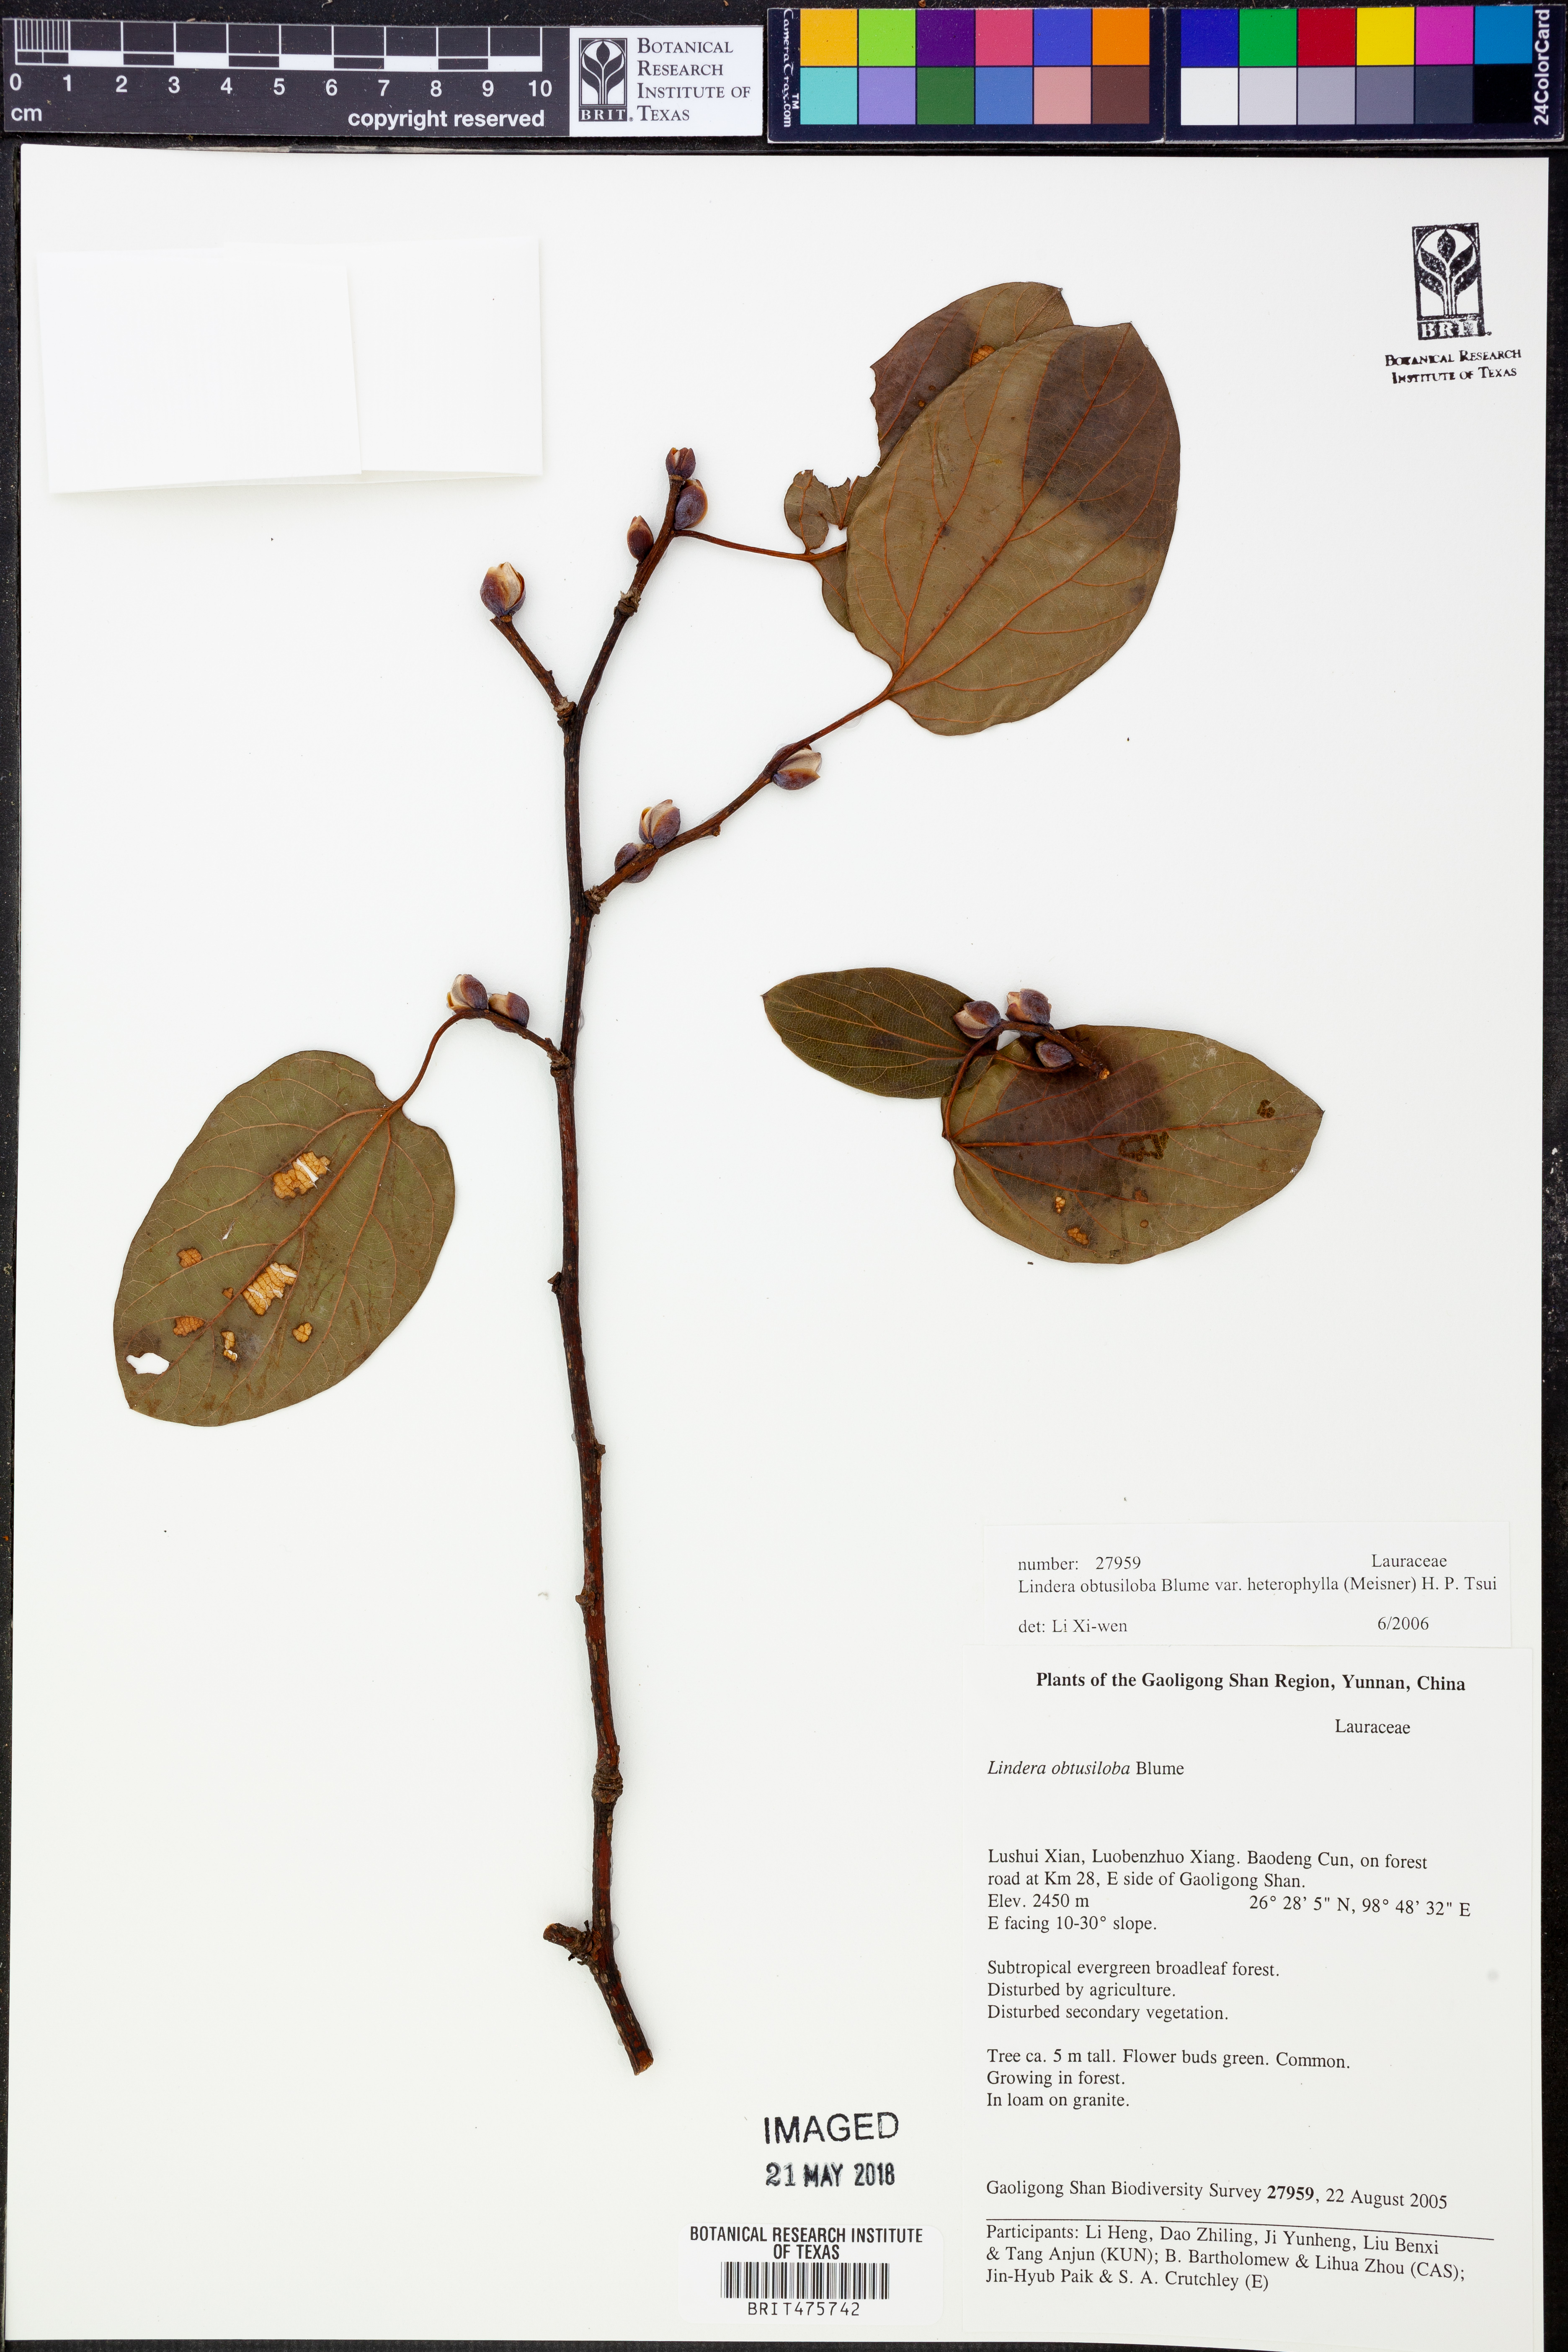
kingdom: Plantae
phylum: Tracheophyta
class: Magnoliopsida
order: Laurales
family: Lauraceae
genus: Lindera
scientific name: Lindera obtusiloba
